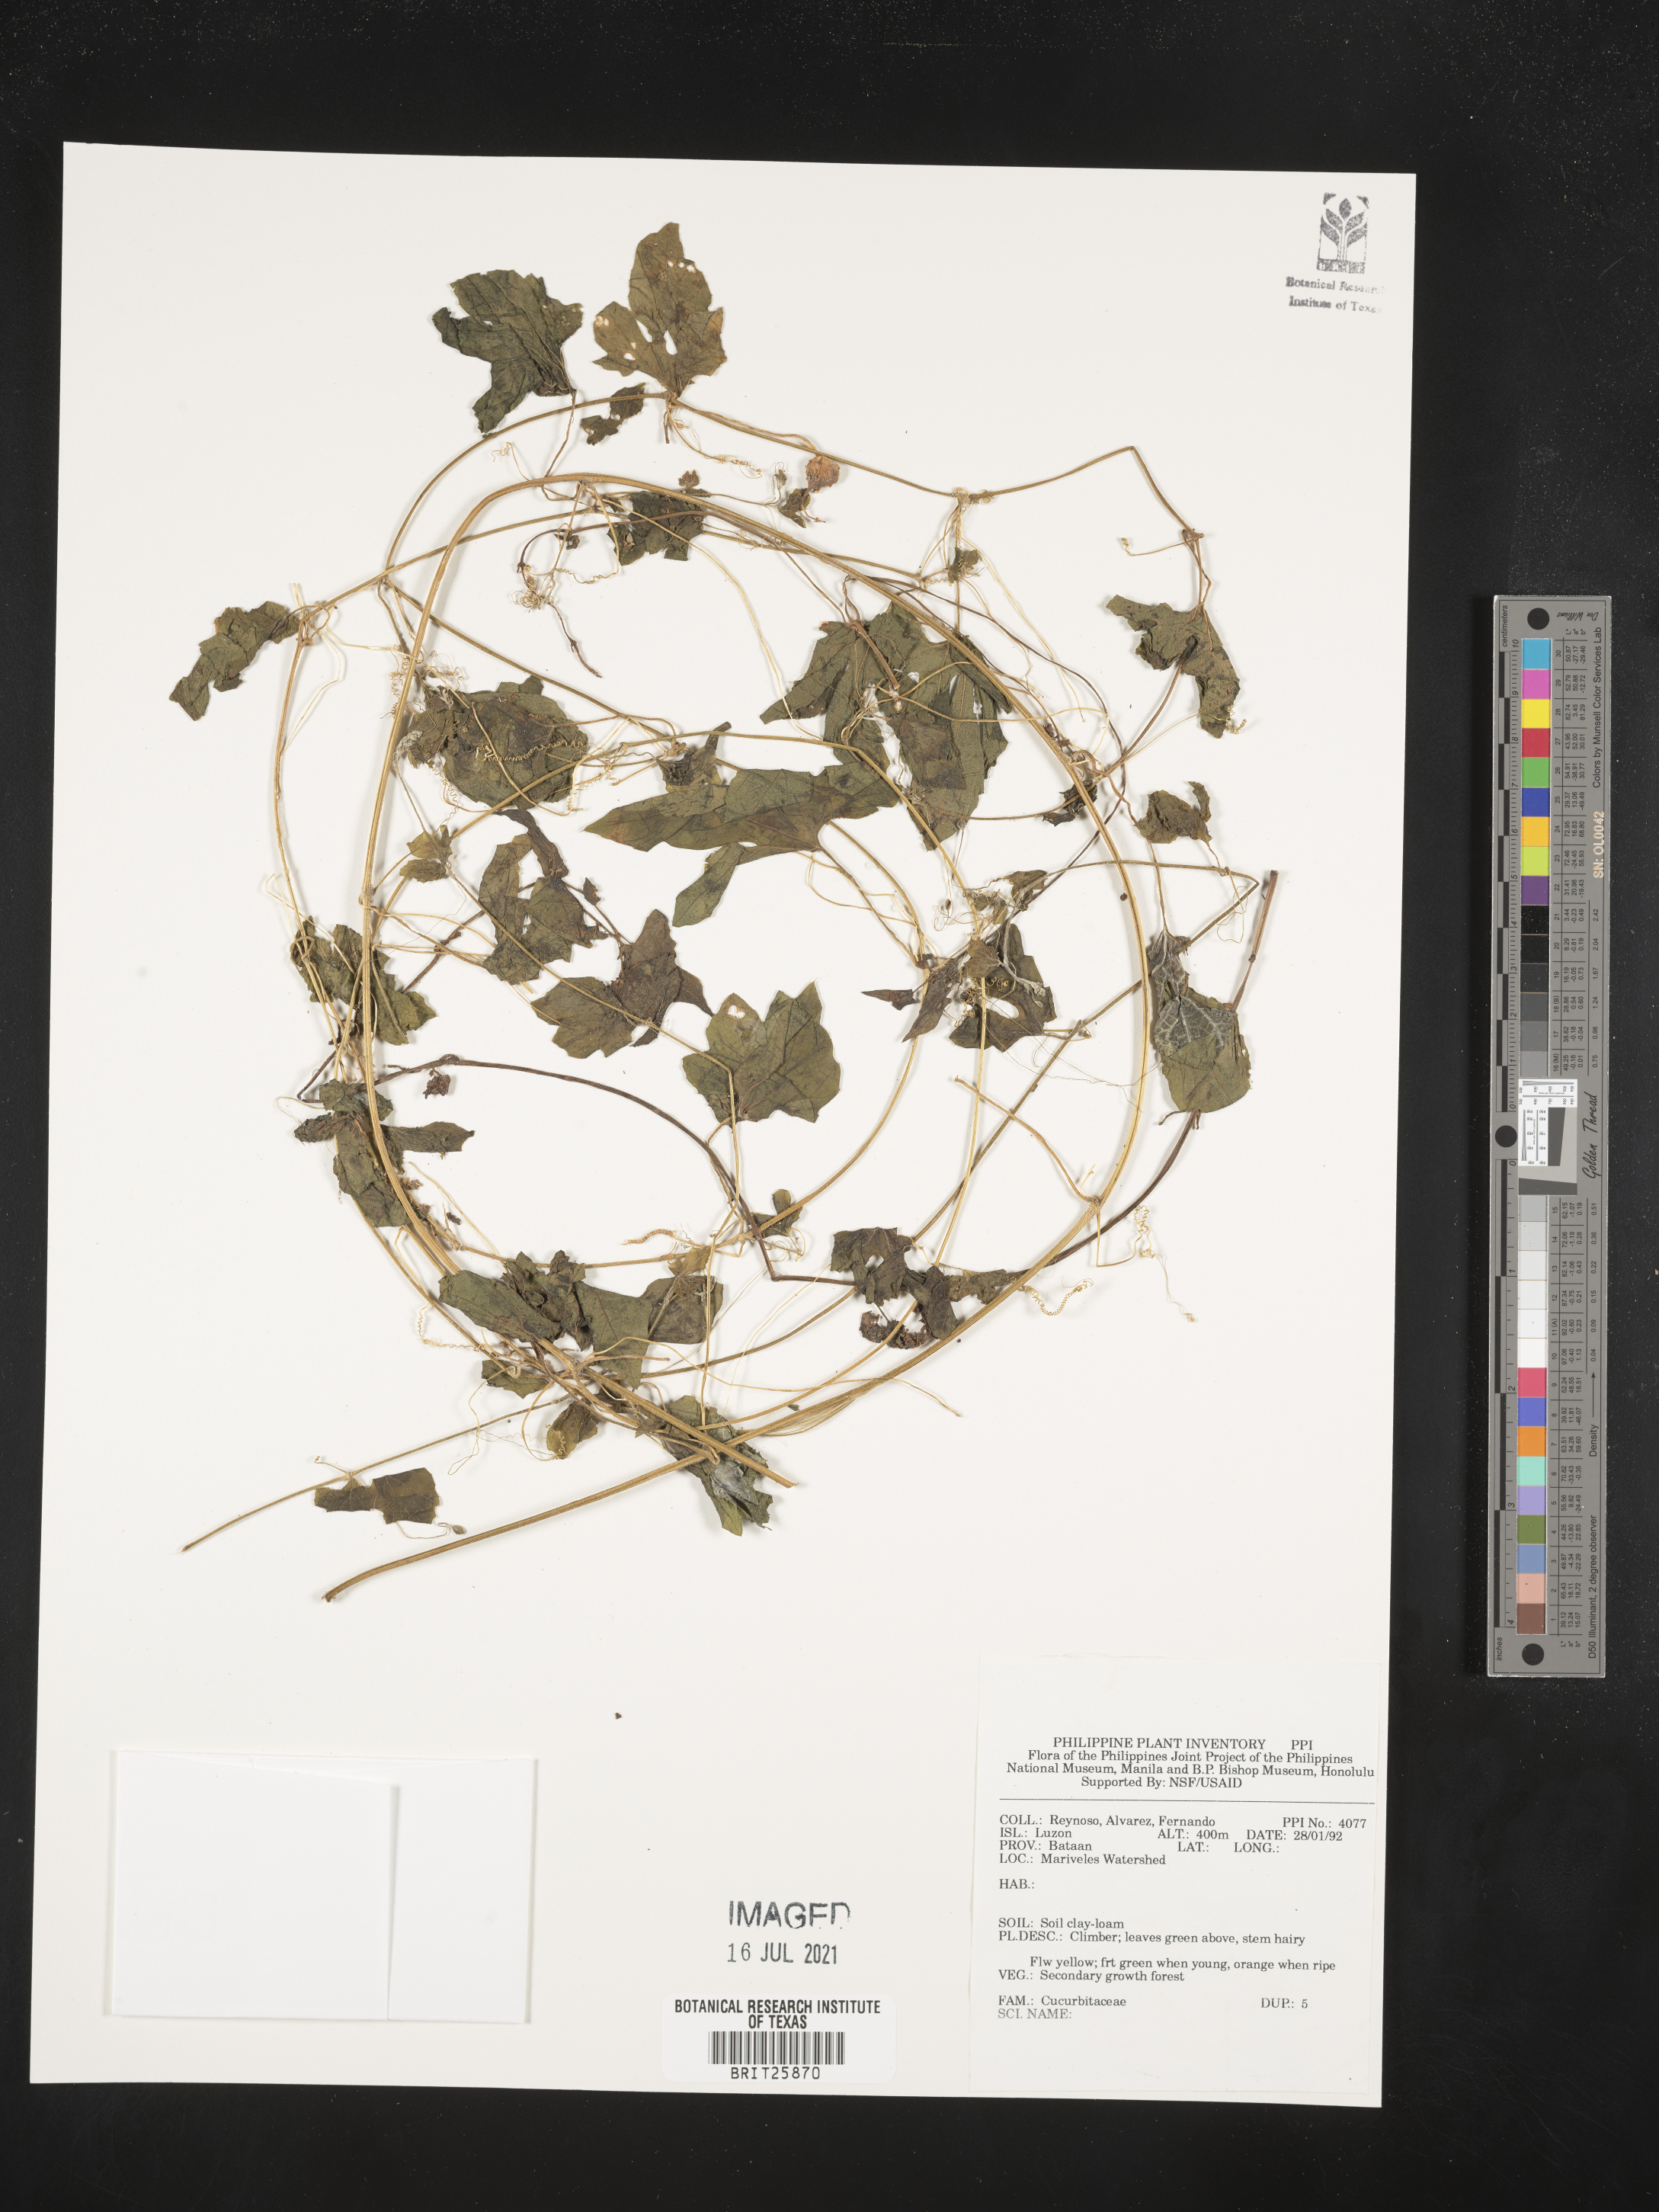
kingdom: Plantae
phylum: Tracheophyta
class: Magnoliopsida
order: Cucurbitales
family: Cucurbitaceae
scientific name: Cucurbitaceae
